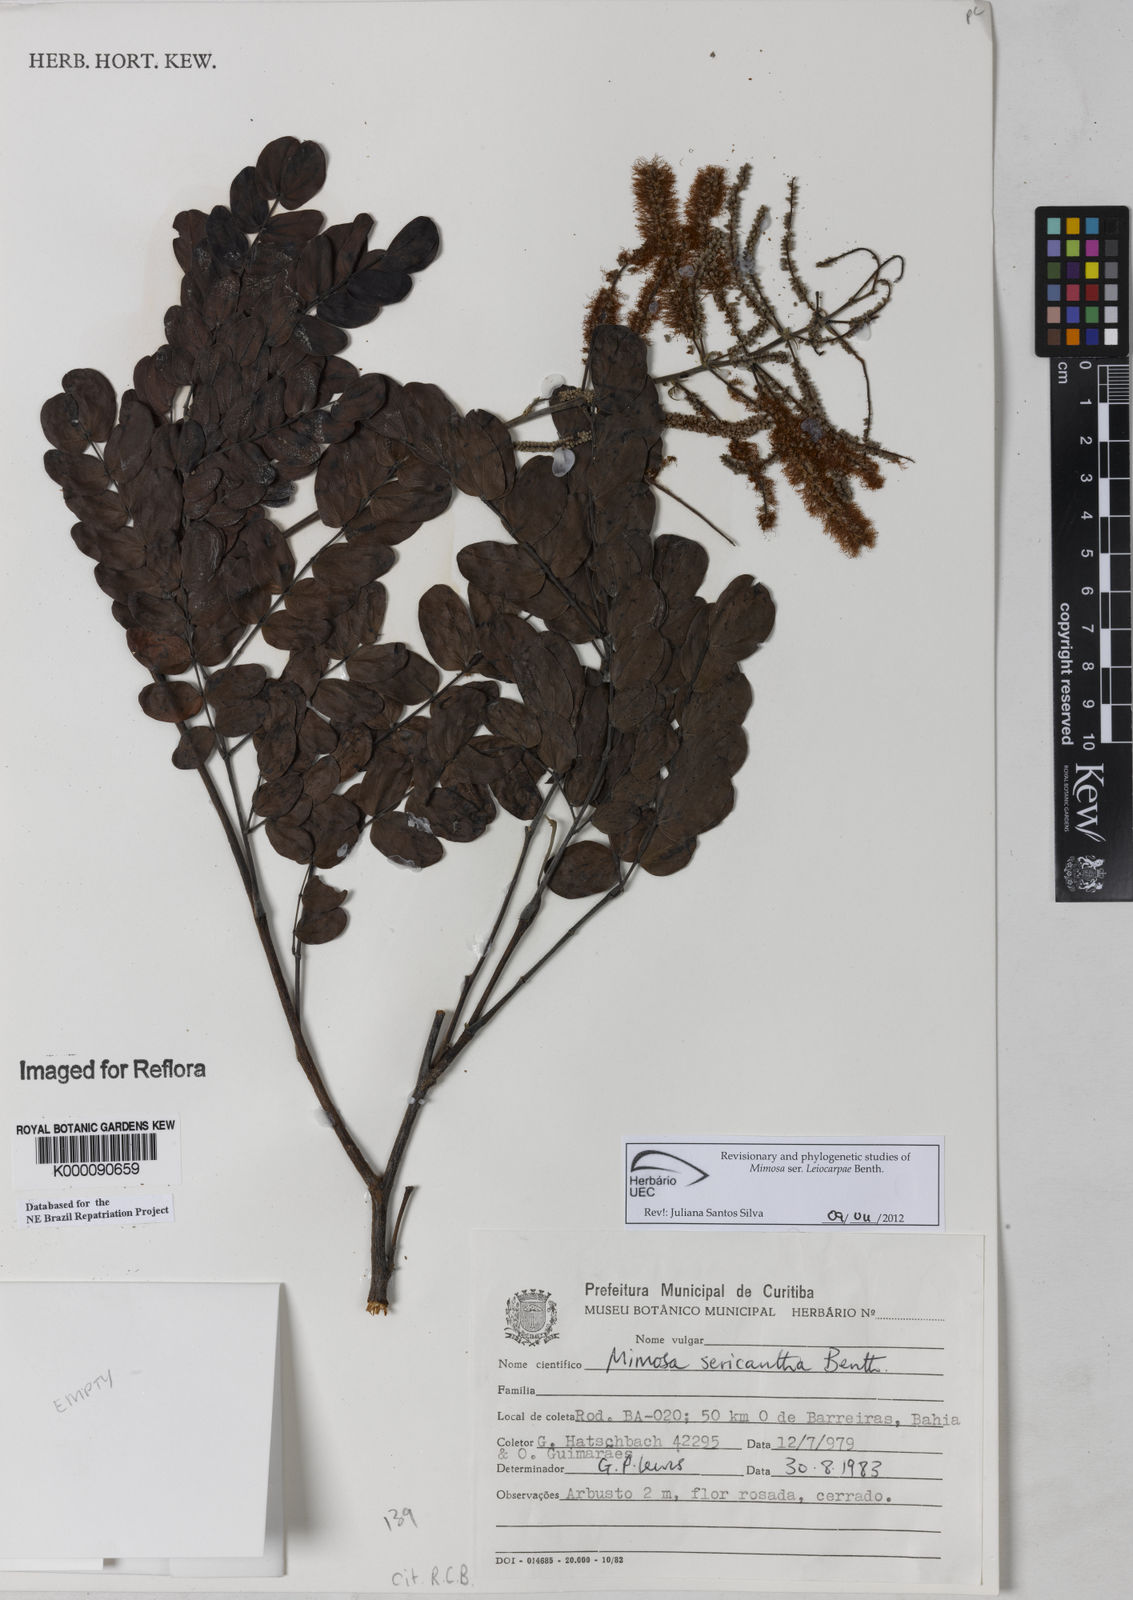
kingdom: Plantae
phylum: Tracheophyta
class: Magnoliopsida
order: Fabales
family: Fabaceae
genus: Mimosa
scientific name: Mimosa sericantha
